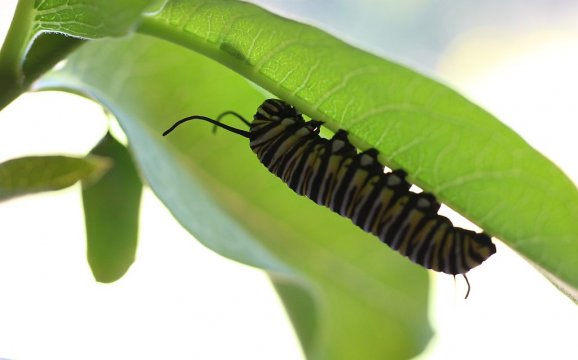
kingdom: Animalia
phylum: Arthropoda
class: Insecta
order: Lepidoptera
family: Nymphalidae
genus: Danaus
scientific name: Danaus plexippus
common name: Monarch
